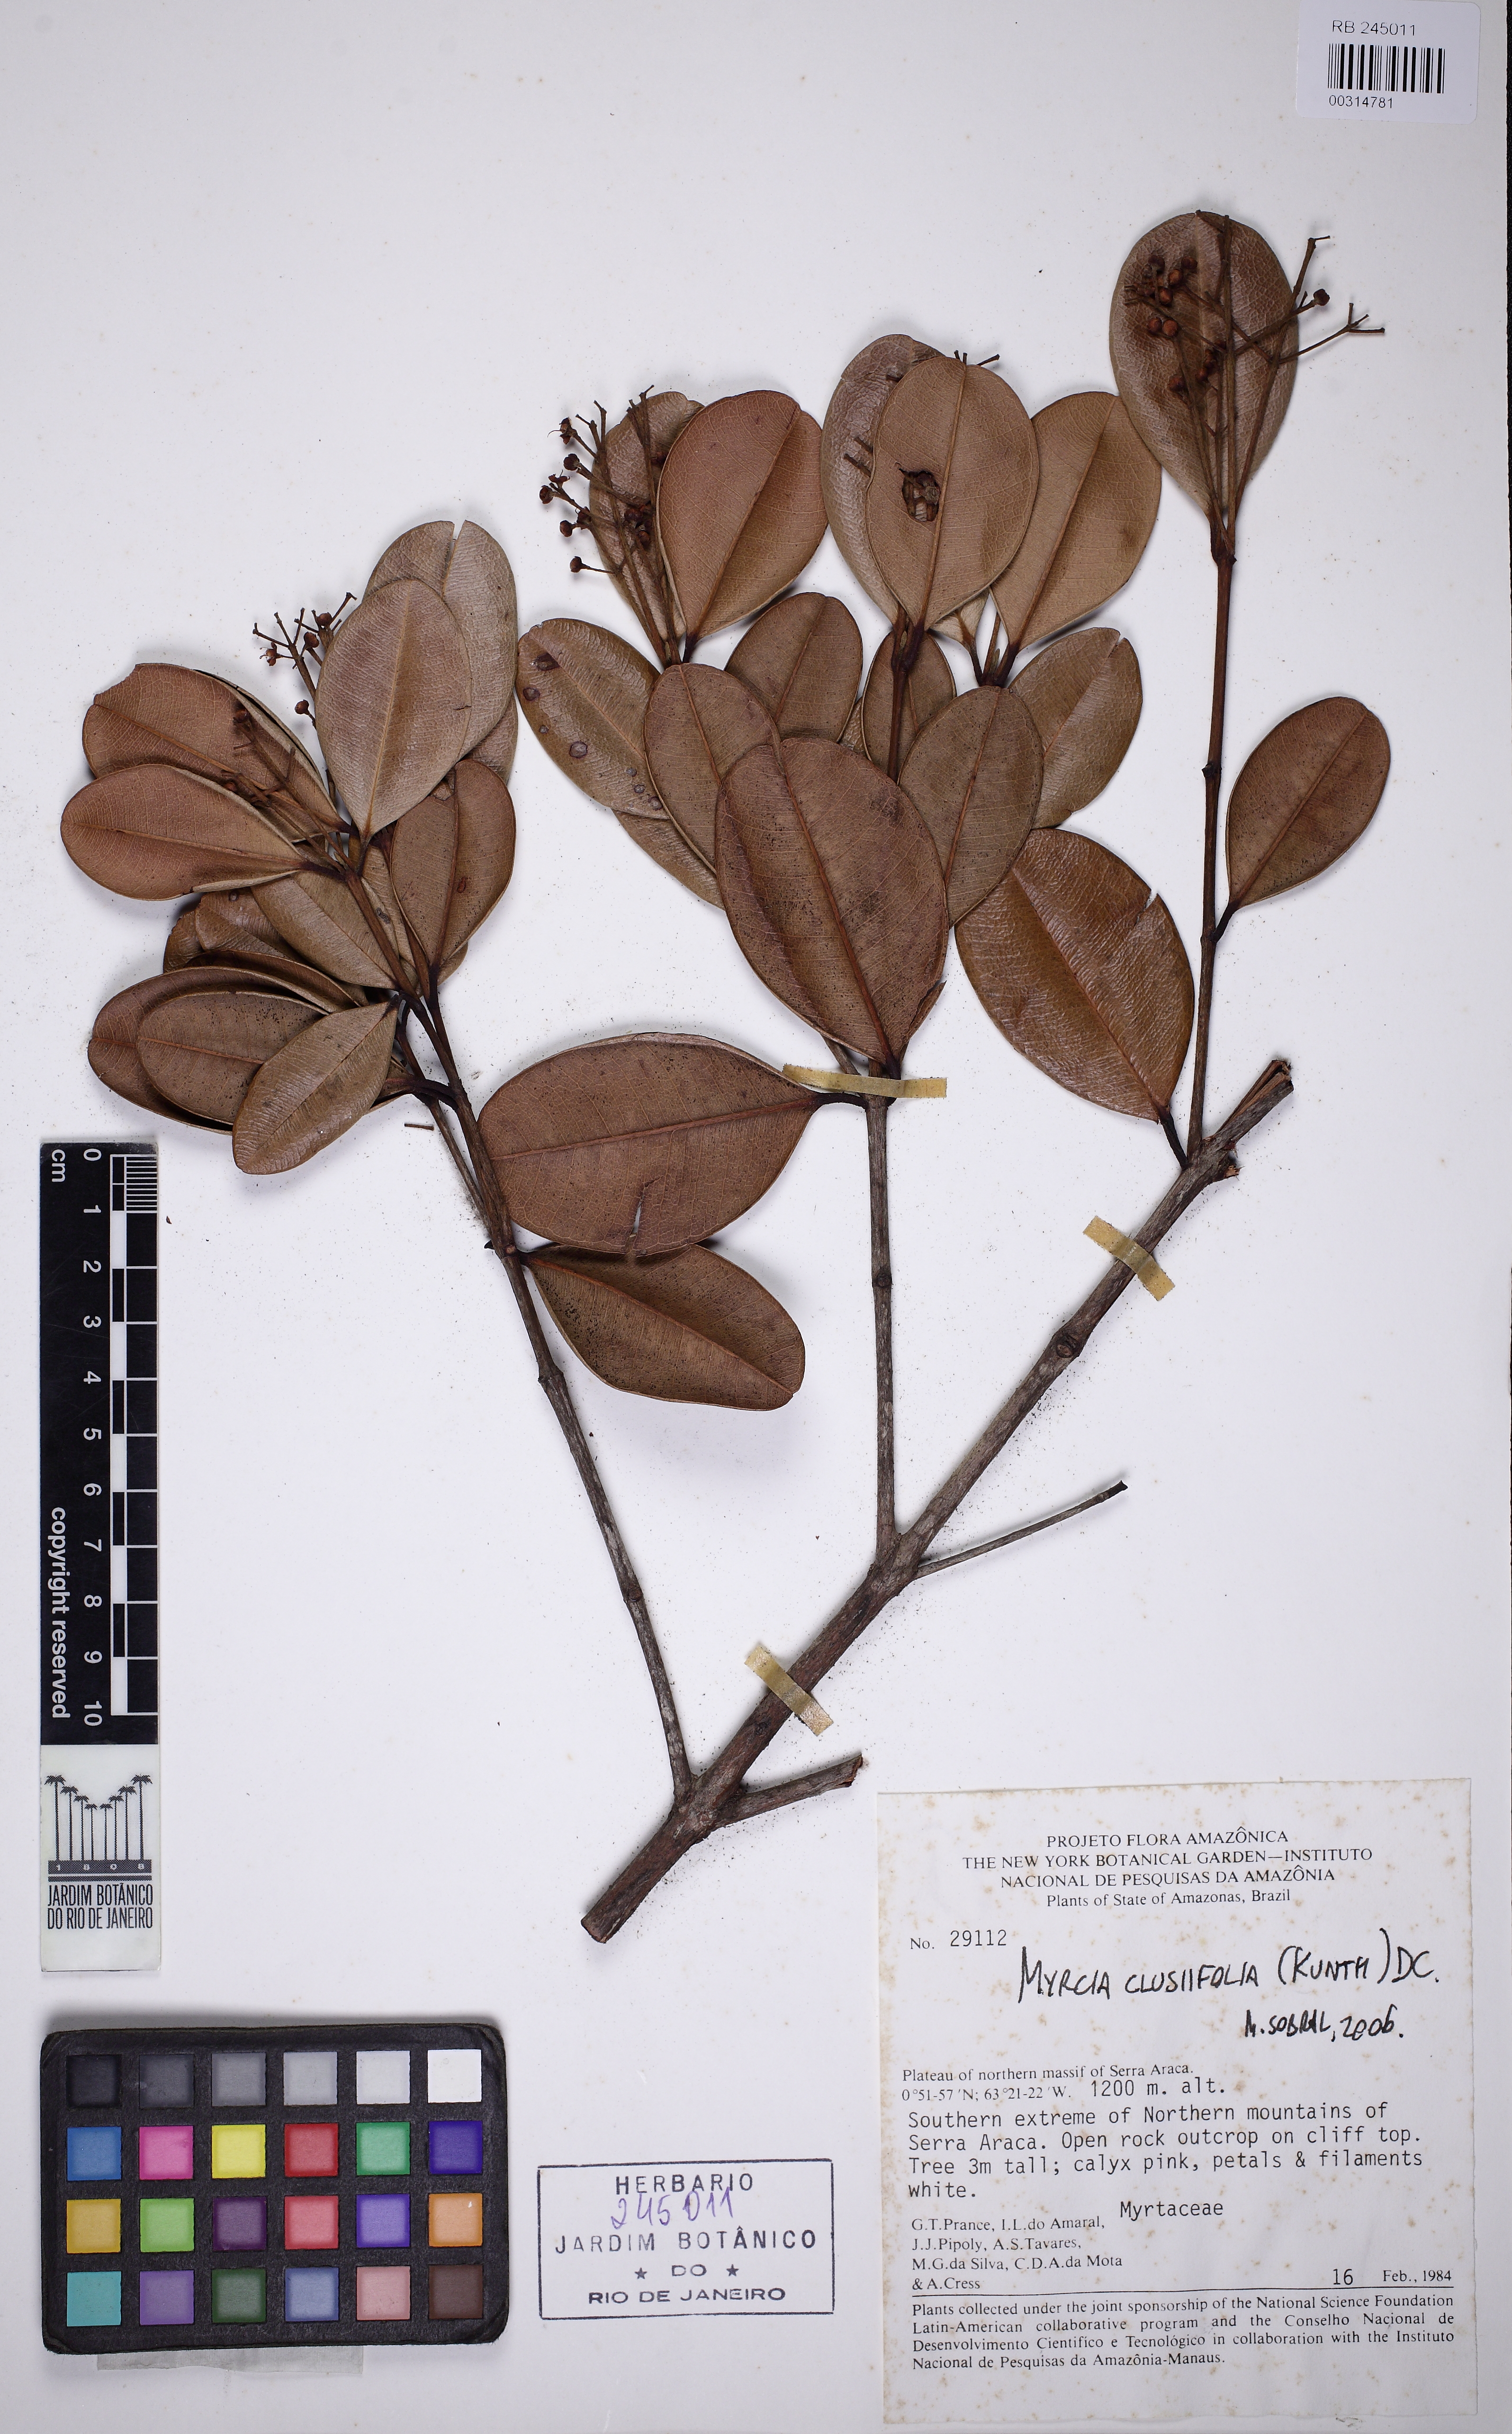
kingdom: Plantae
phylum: Tracheophyta
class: Magnoliopsida
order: Myrtales
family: Myrtaceae
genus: Myrcia
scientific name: Myrcia clusiifolia
